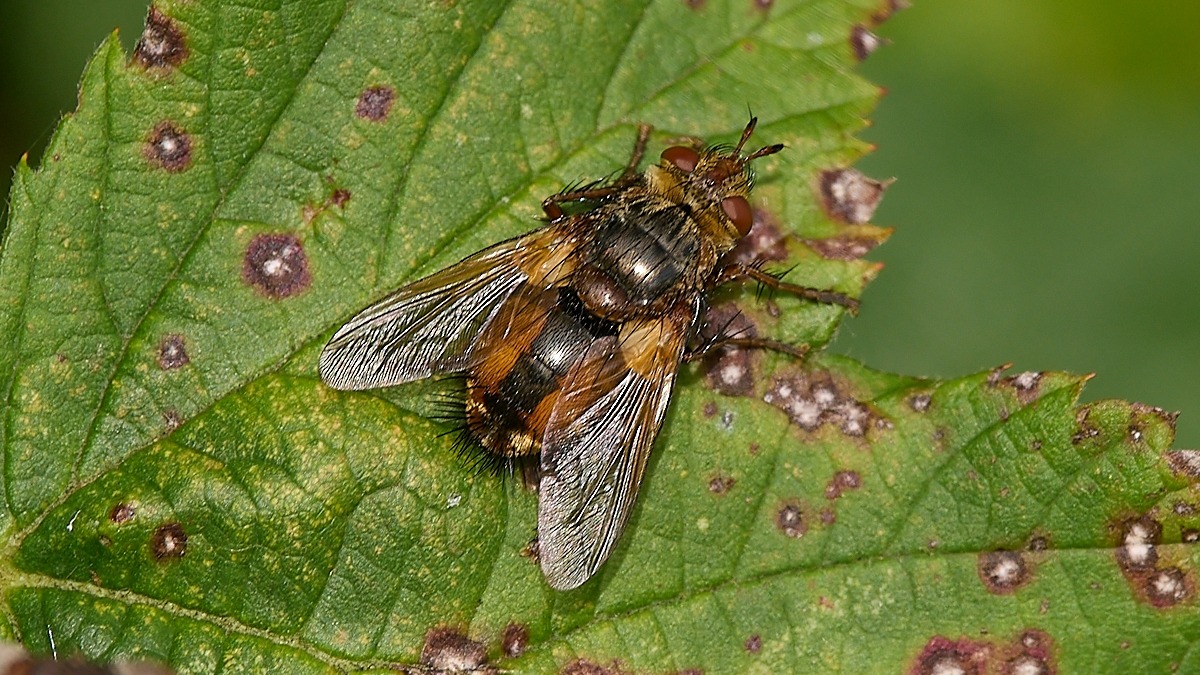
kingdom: Animalia
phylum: Arthropoda
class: Insecta
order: Diptera
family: Tachinidae
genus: Tachina
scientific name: Tachina fera
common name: Mellemfluen oskar
